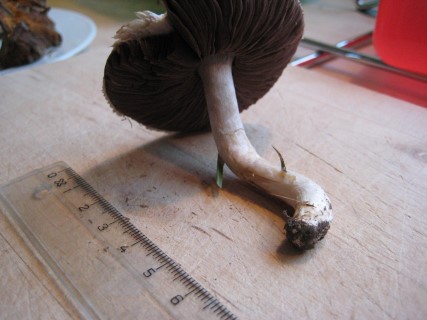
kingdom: Fungi
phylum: Basidiomycota
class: Agaricomycetes
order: Agaricales
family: Agaricaceae
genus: Agaricus
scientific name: Agaricus campestris
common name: mark-champignon
